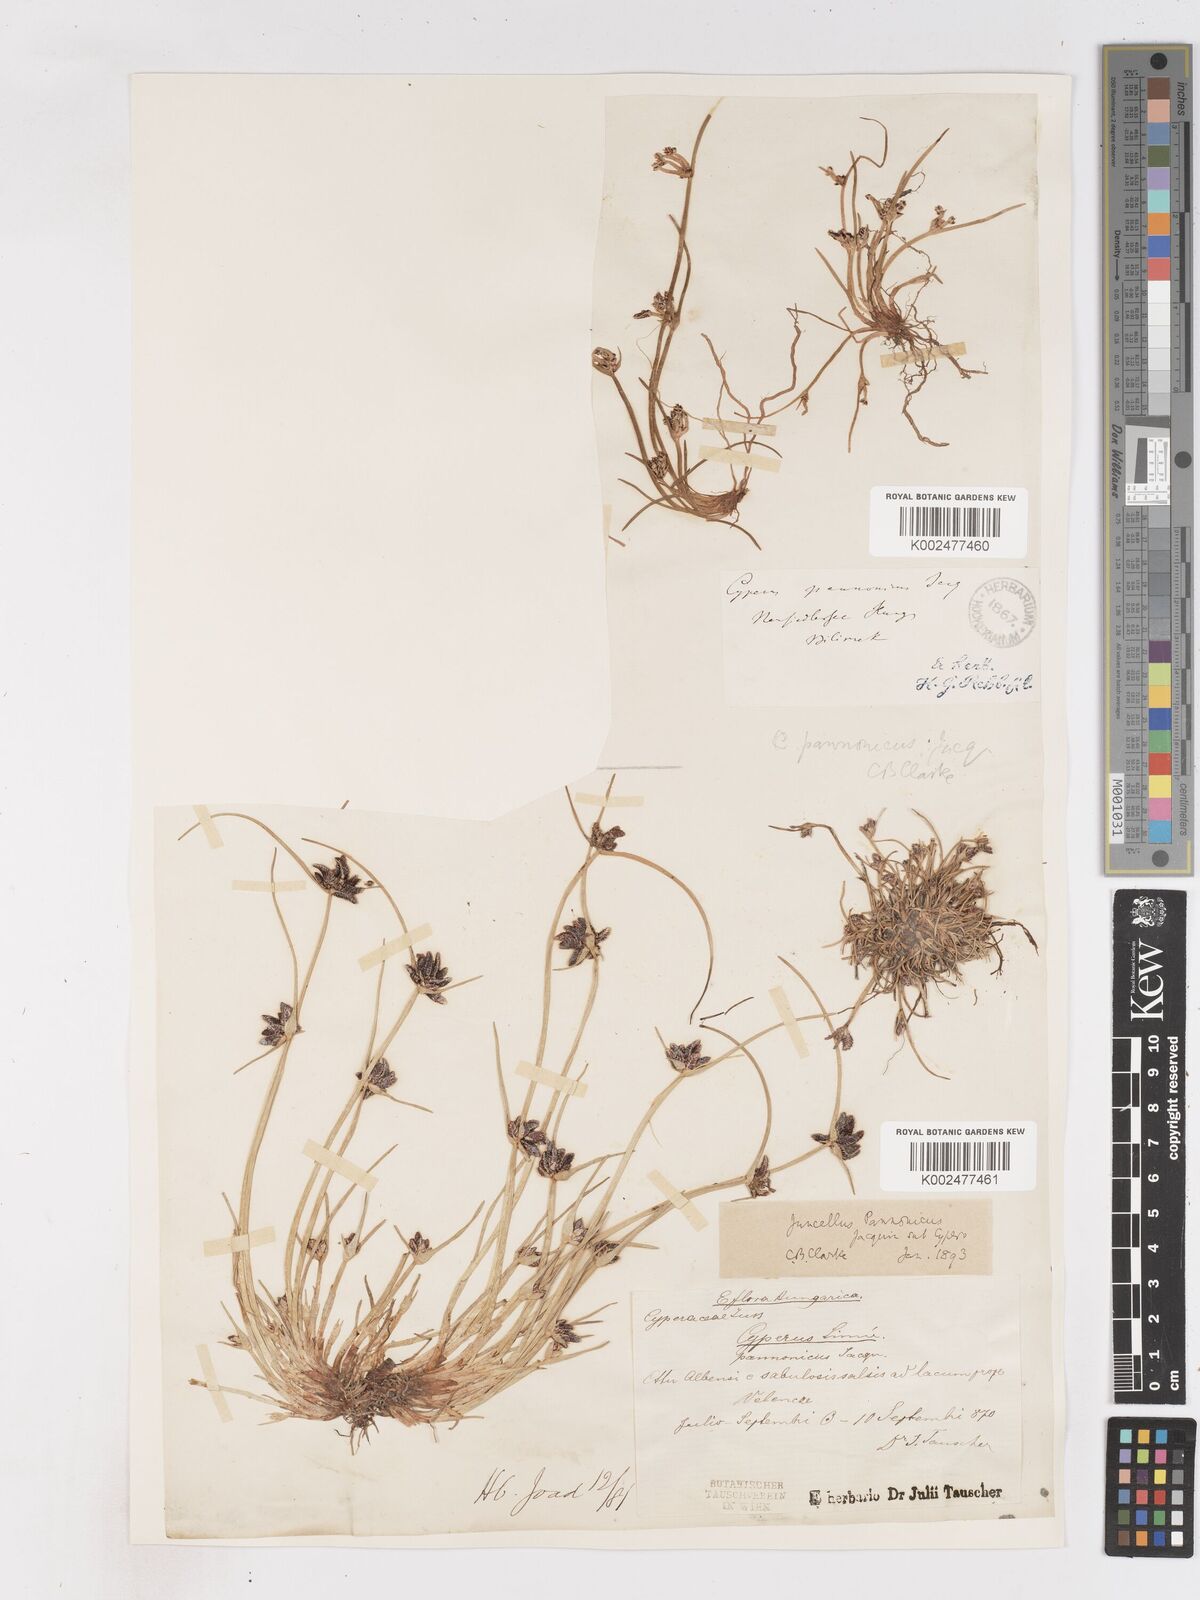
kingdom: Plantae
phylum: Tracheophyta
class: Liliopsida
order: Poales
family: Cyperaceae
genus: Cyperus
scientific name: Cyperus pannonicus
